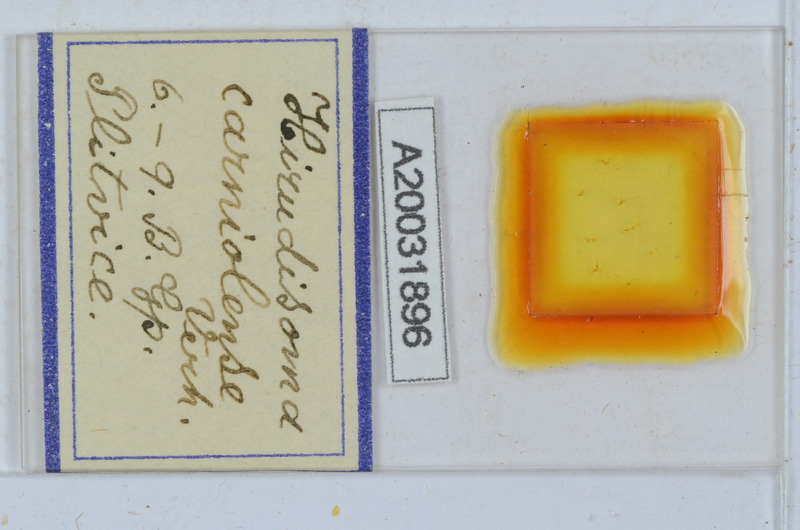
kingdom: Animalia
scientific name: Animalia
